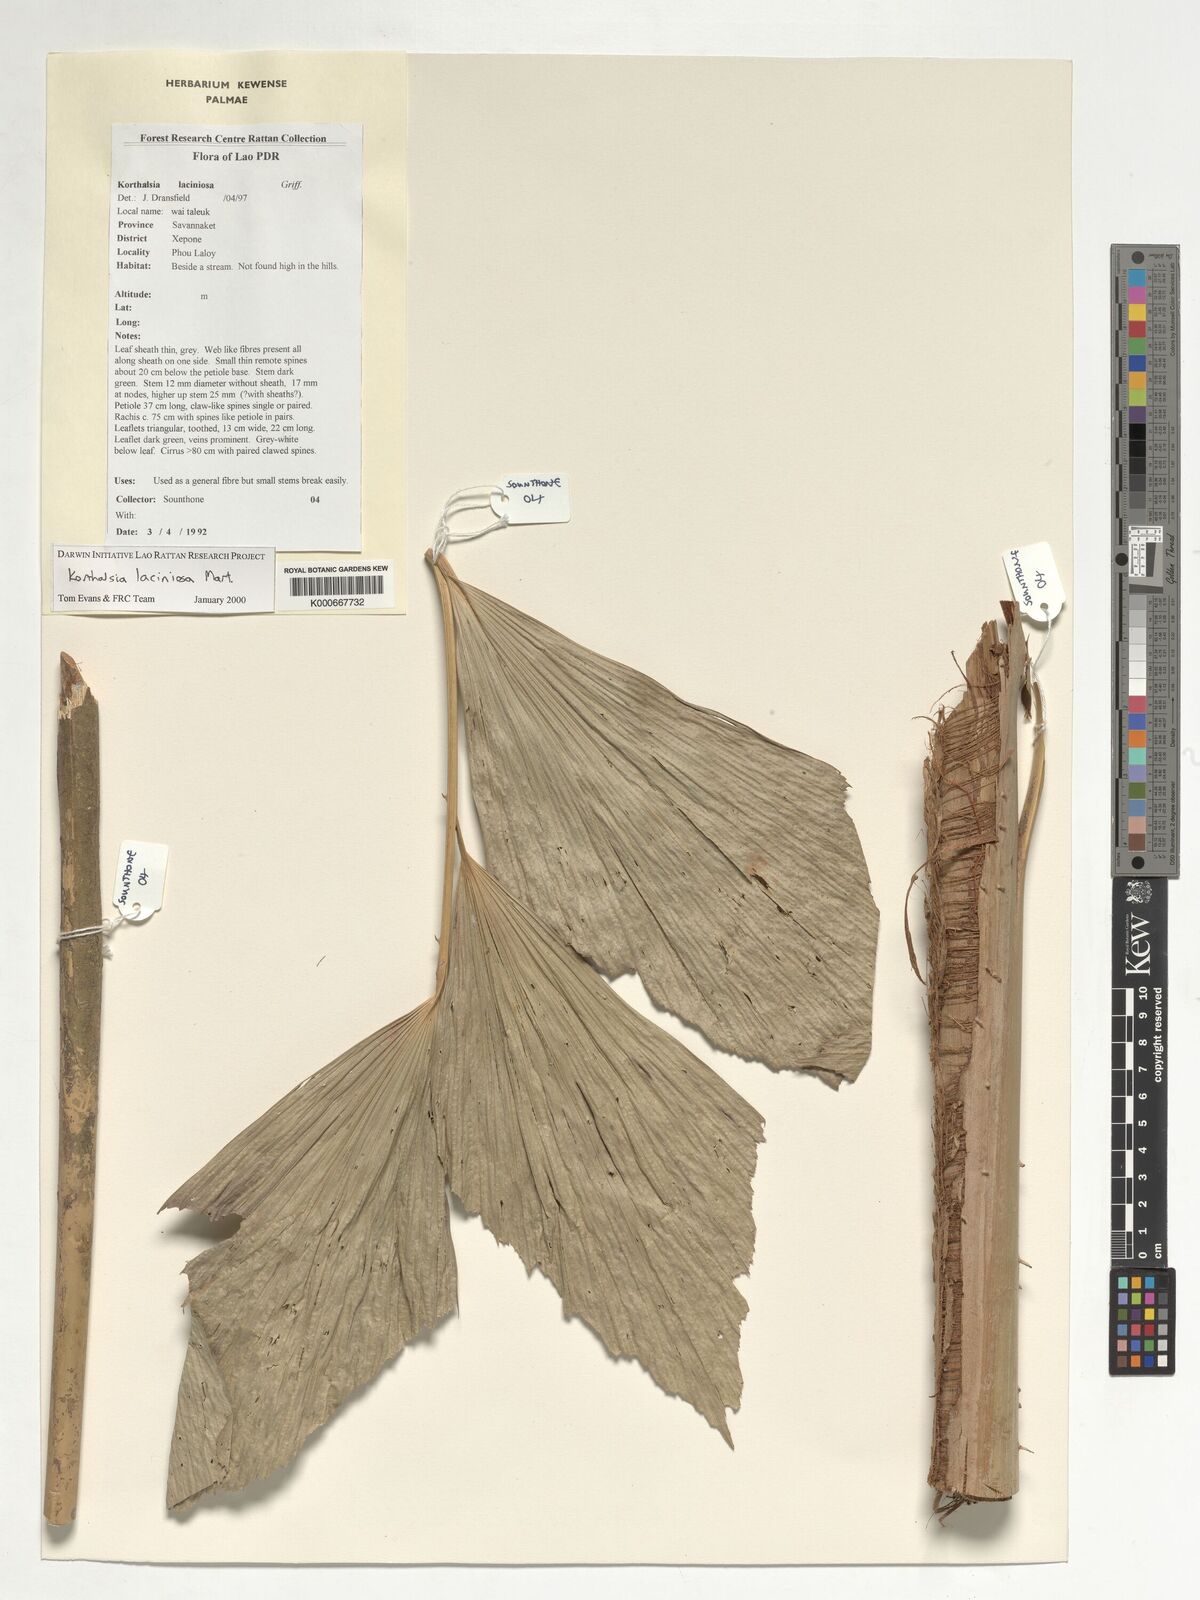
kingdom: Plantae
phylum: Tracheophyta
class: Liliopsida
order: Arecales
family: Arecaceae
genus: Korthalsia
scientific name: Korthalsia laciniosa
